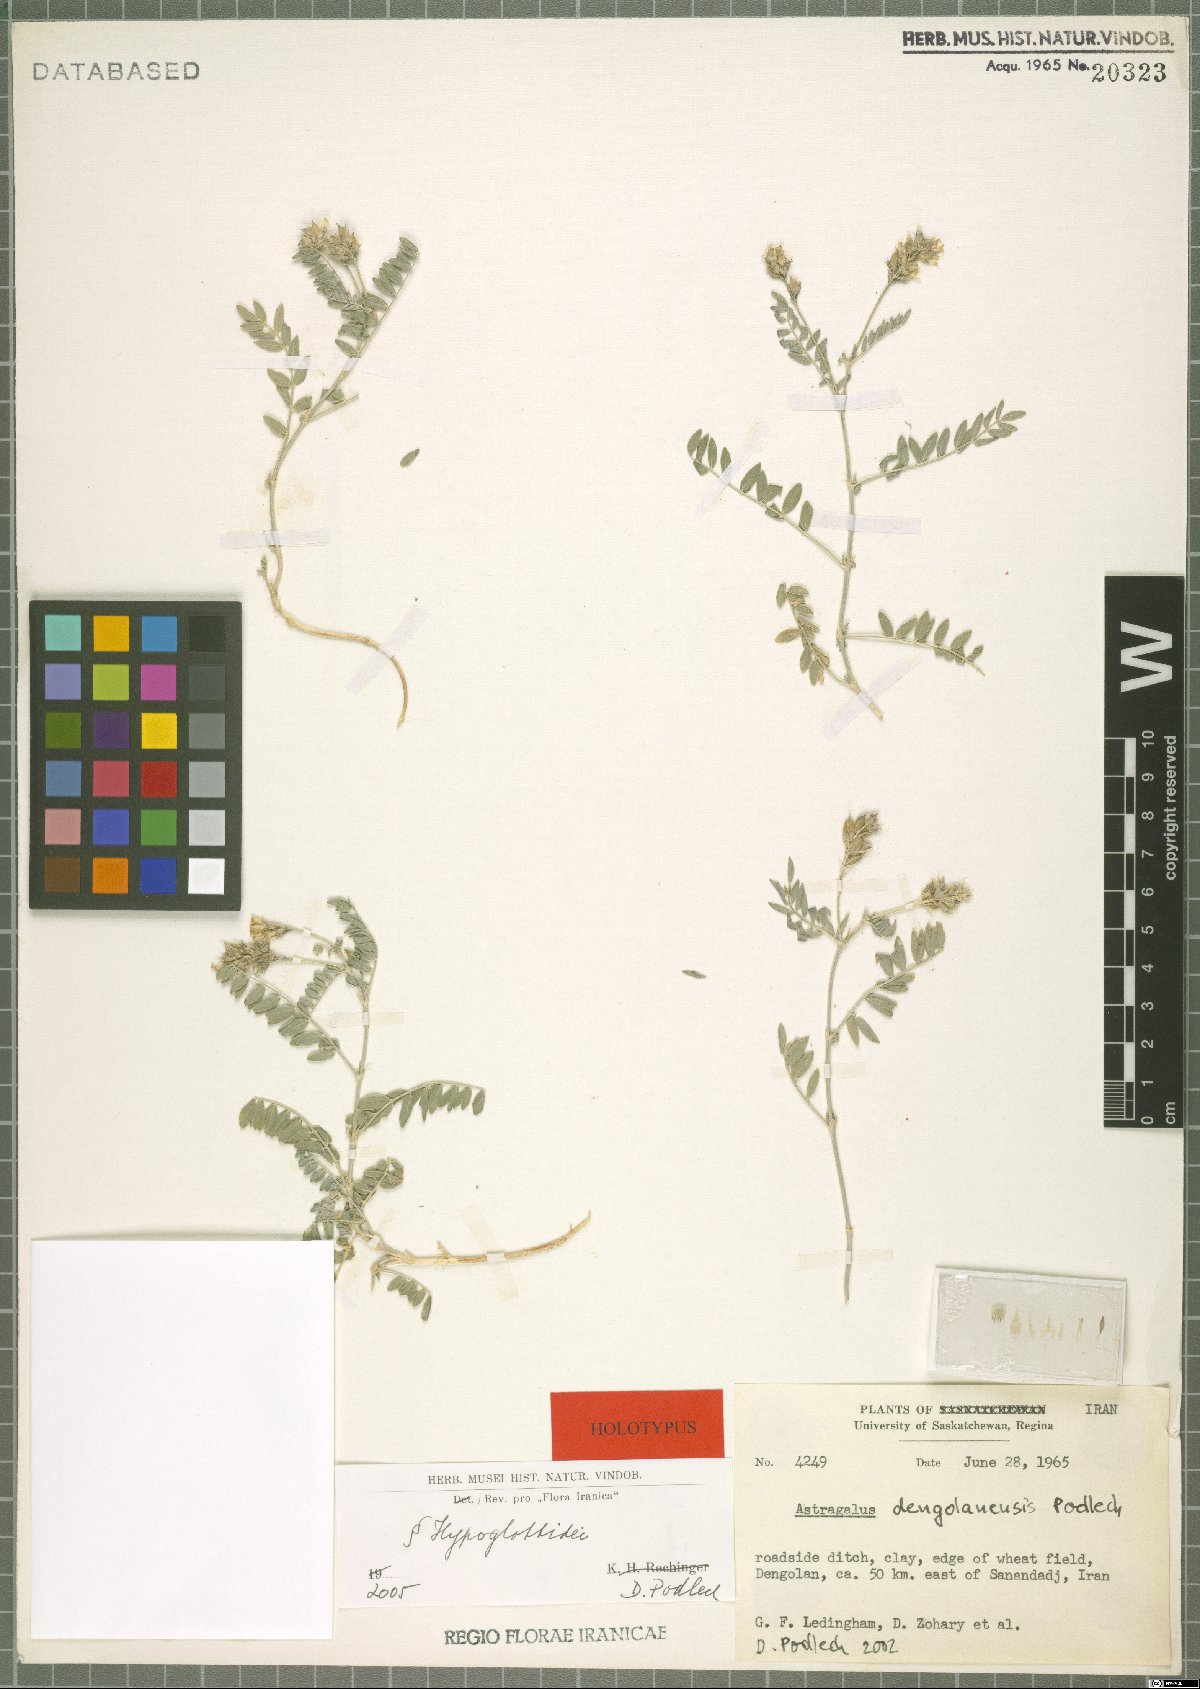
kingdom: Plantae
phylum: Tracheophyta
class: Magnoliopsida
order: Fabales
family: Fabaceae
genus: Astragalus
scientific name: Astragalus dengolanensis
